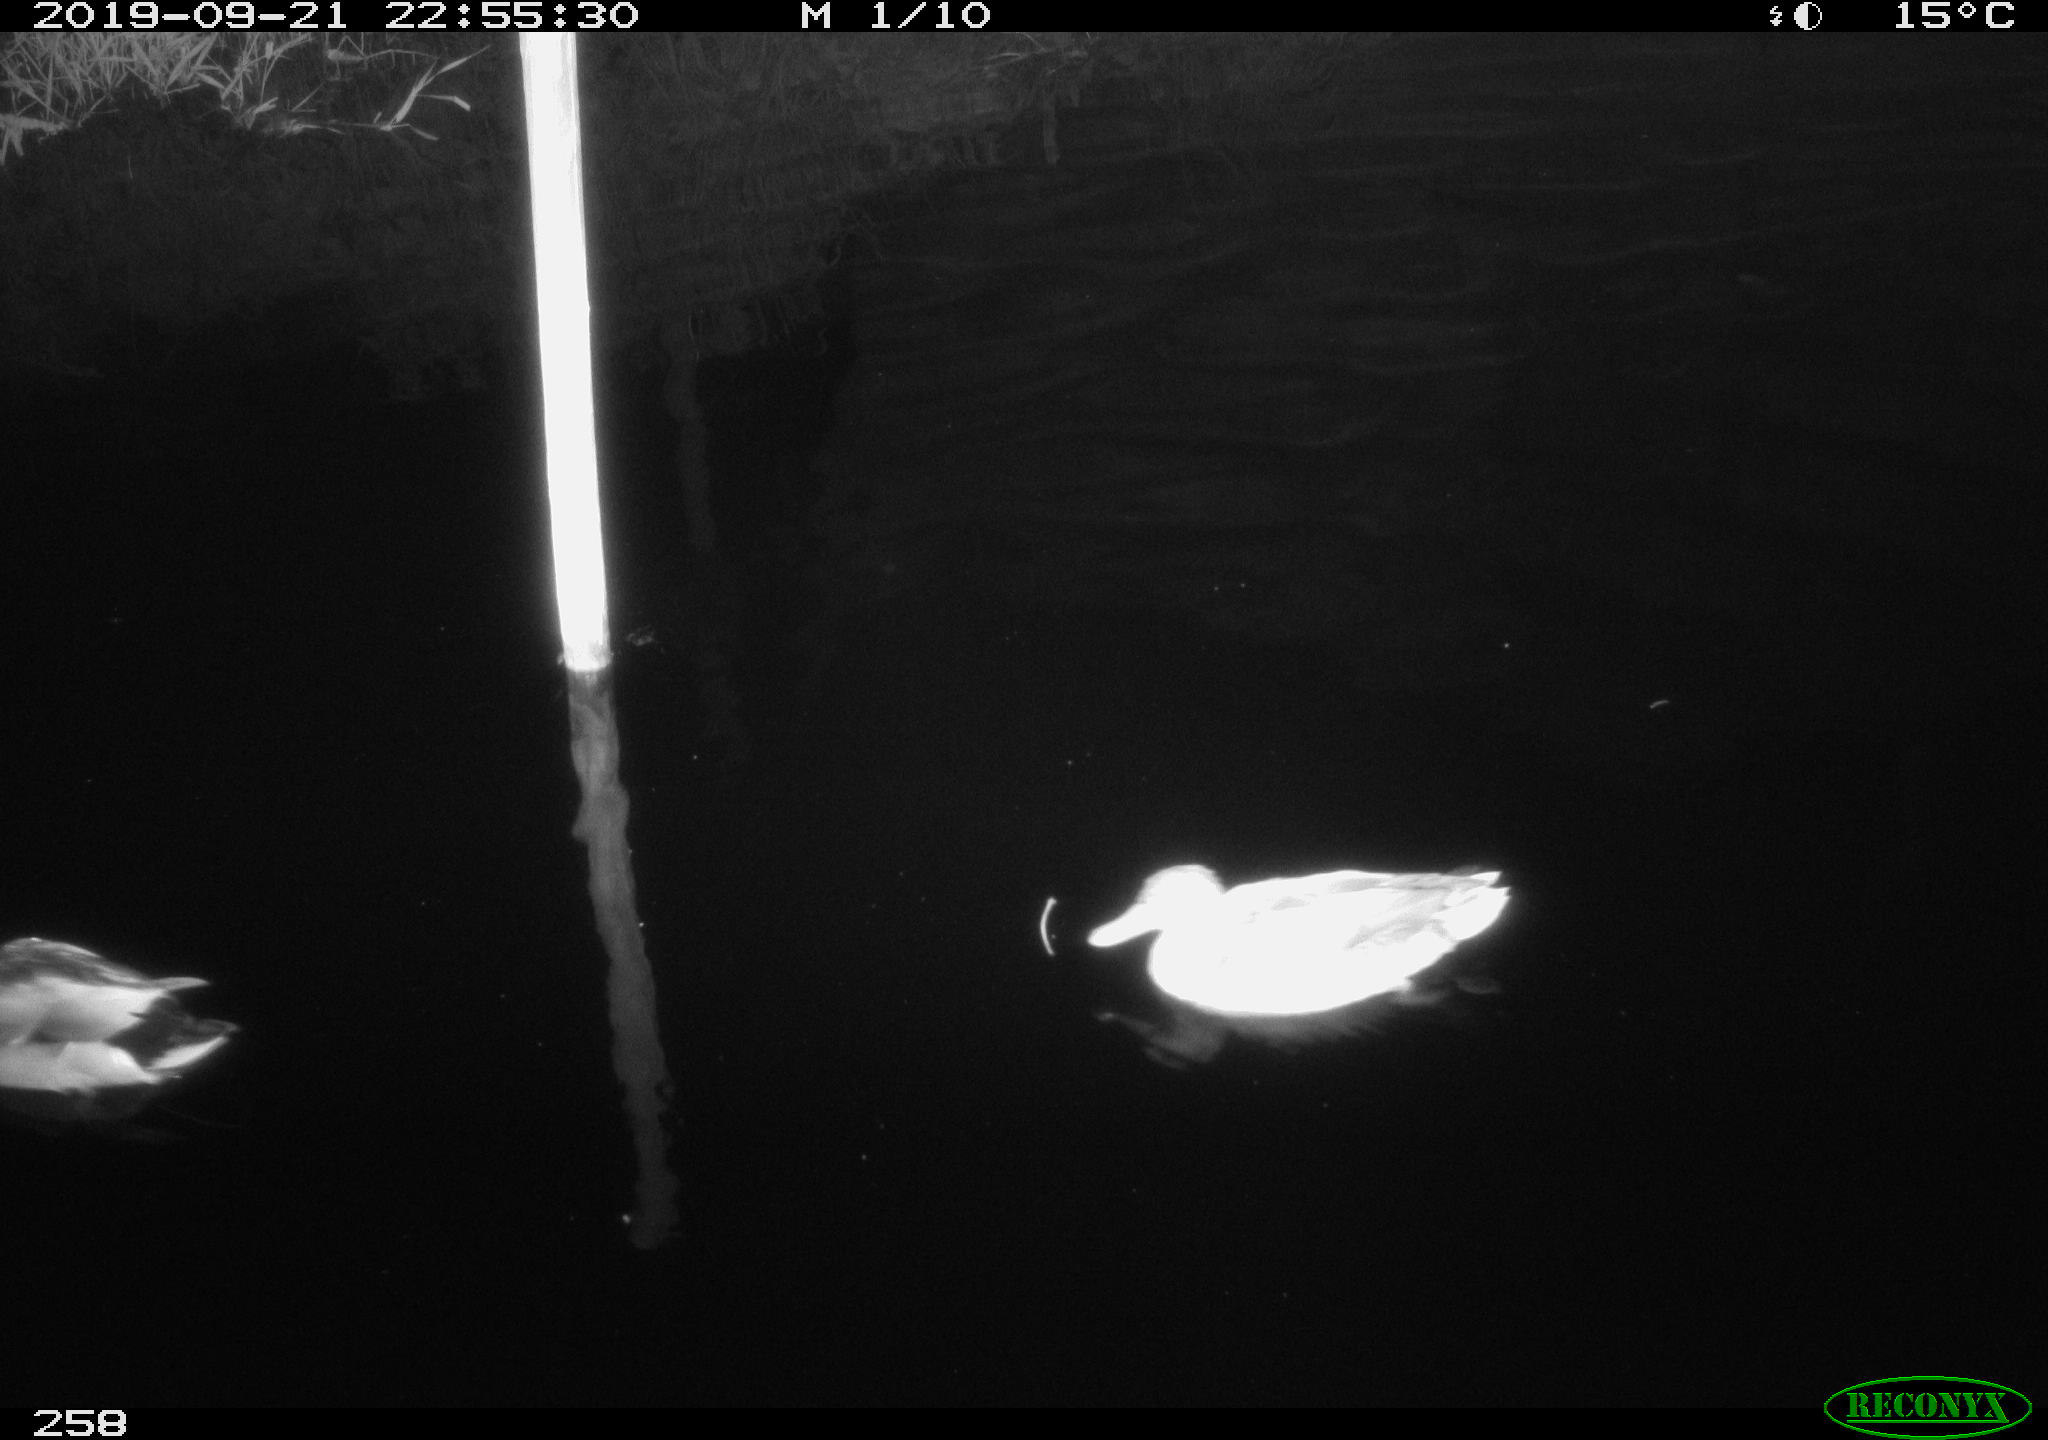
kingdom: Animalia
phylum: Chordata
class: Aves
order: Anseriformes
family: Anatidae
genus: Anas
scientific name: Anas platyrhynchos
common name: Mallard
